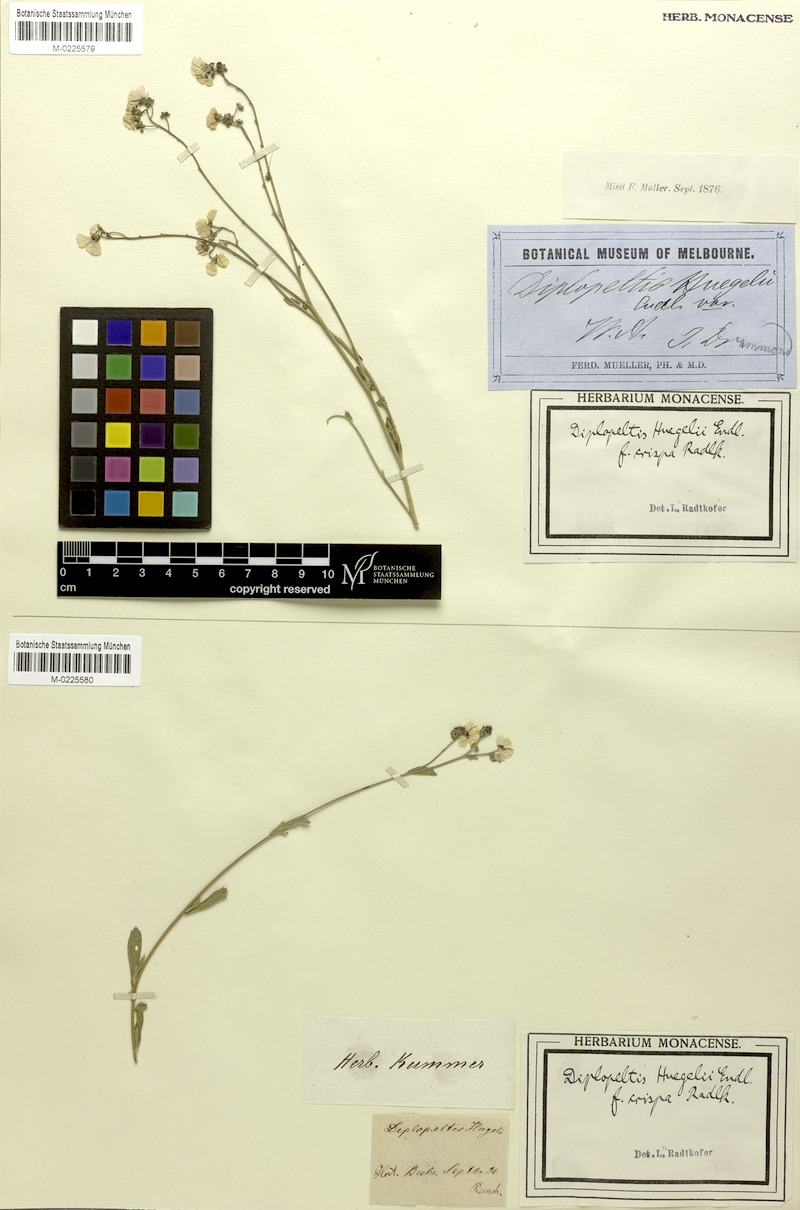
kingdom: Plantae
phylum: Tracheophyta
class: Magnoliopsida
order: Sapindales
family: Sapindaceae
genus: Diplopeltis
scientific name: Diplopeltis huegelii
